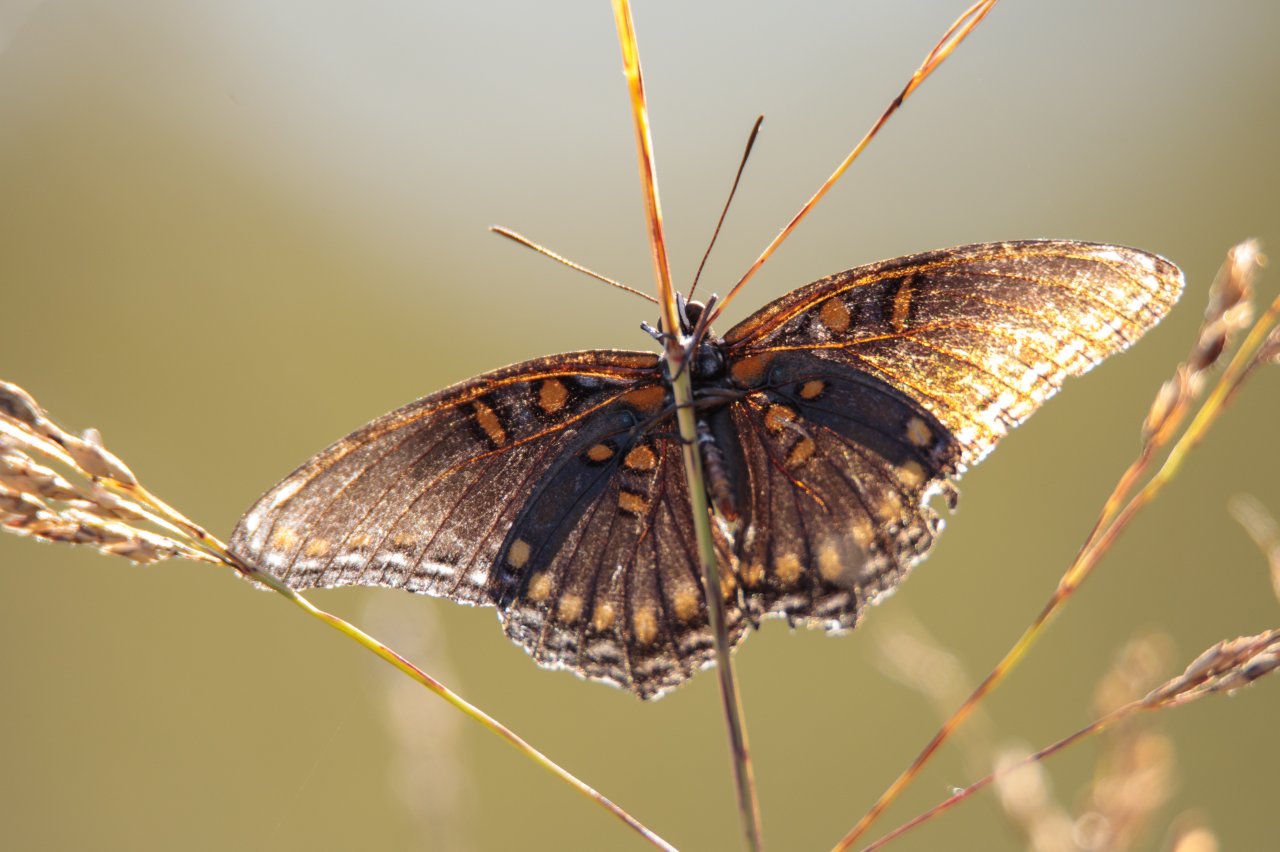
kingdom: Animalia
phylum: Arthropoda
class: Insecta
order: Lepidoptera
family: Nymphalidae
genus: Limenitis
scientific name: Limenitis astyanax
